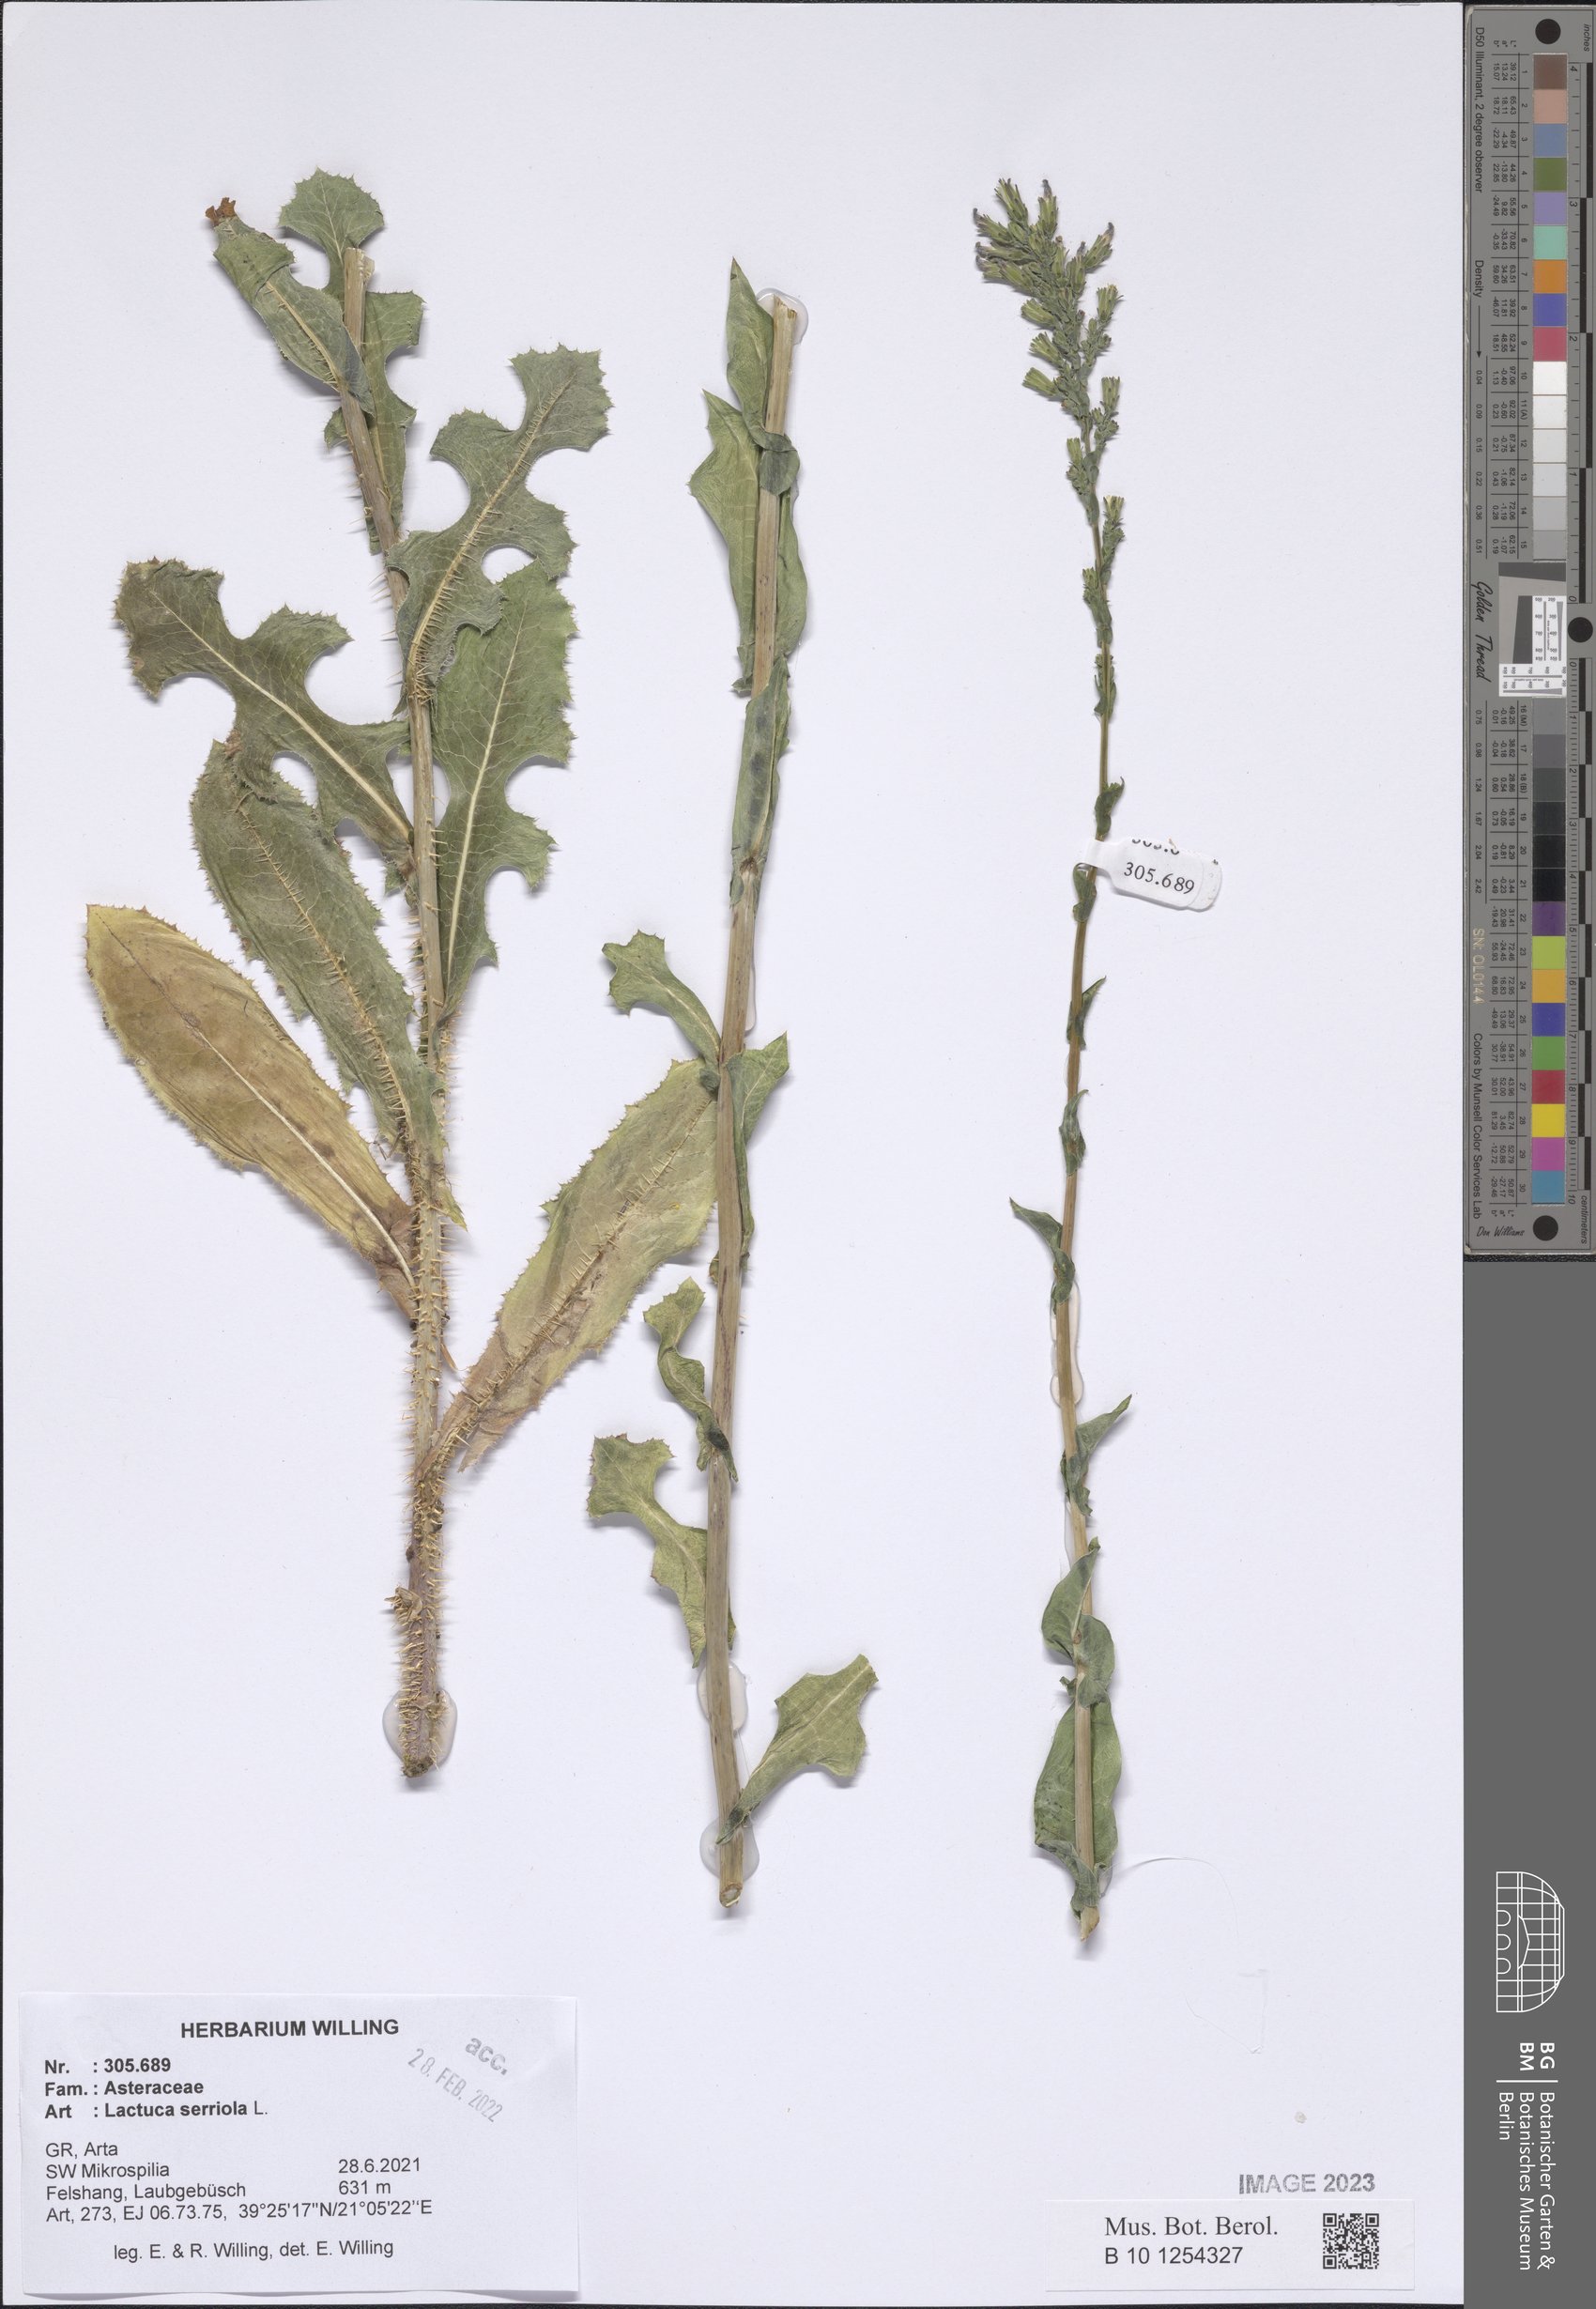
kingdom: Plantae
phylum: Tracheophyta
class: Magnoliopsida
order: Asterales
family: Asteraceae
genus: Lactuca
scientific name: Lactuca serriola
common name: Prickly lettuce
